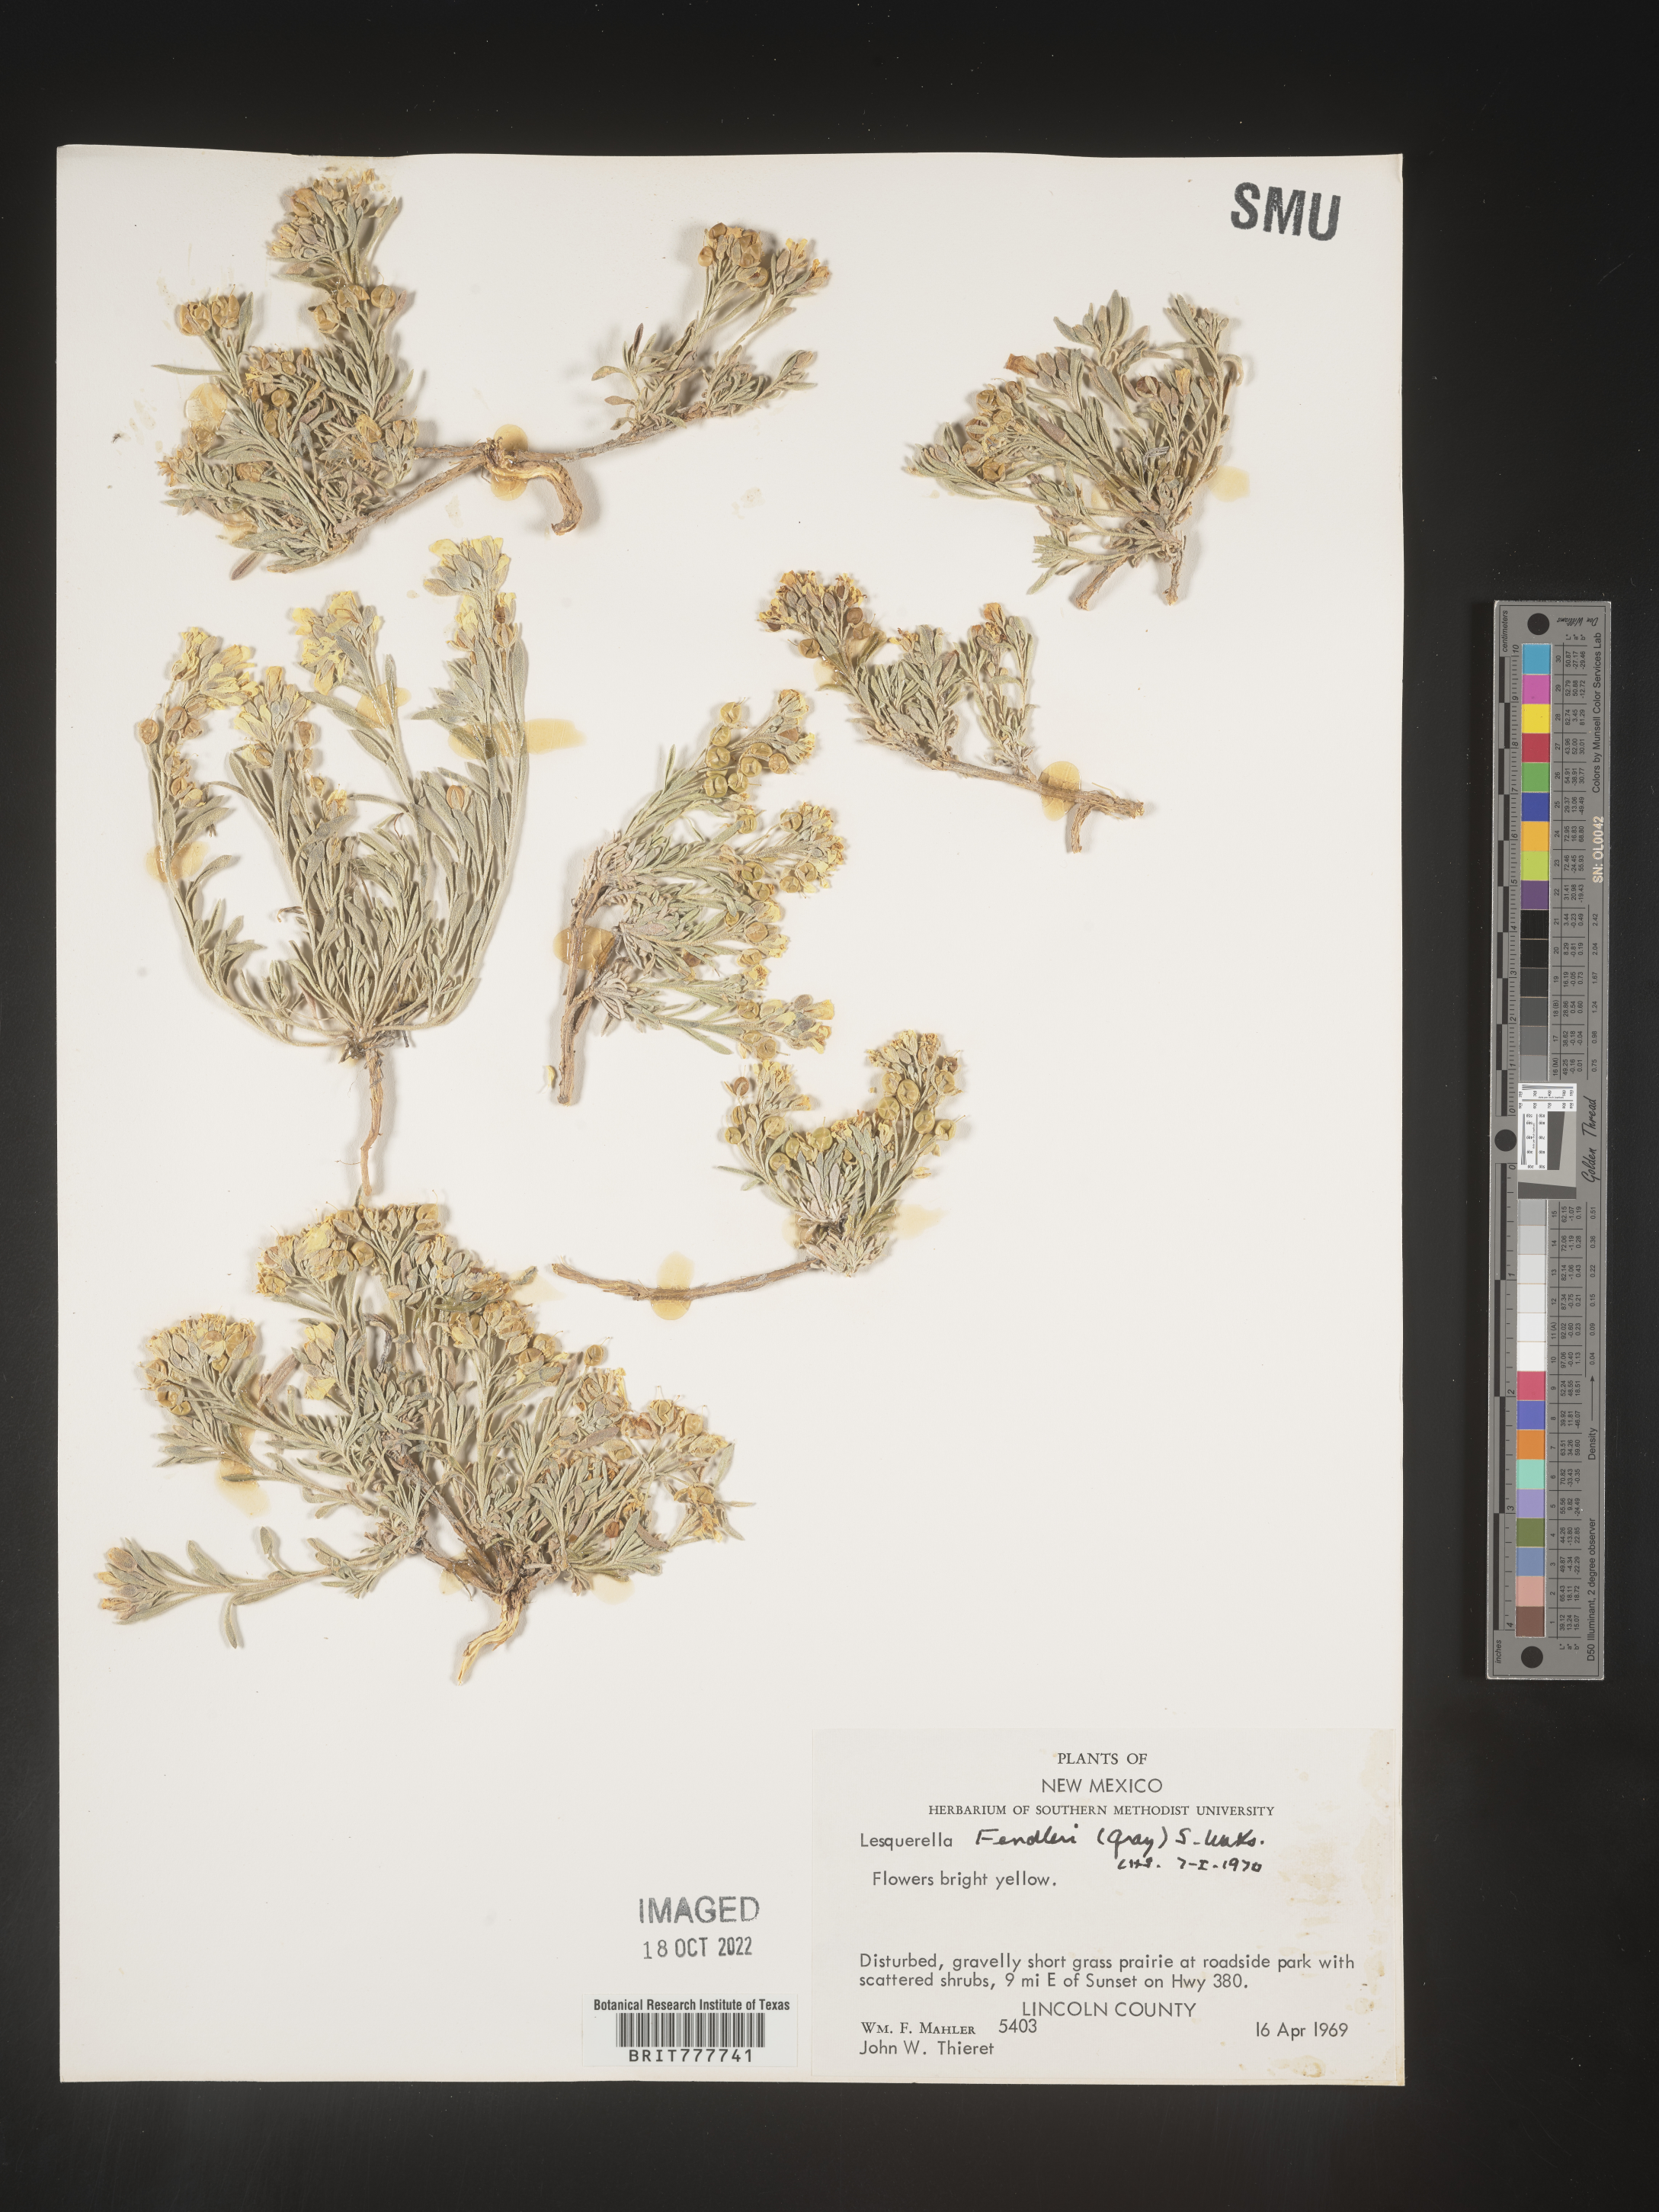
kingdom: Plantae
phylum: Tracheophyta
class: Magnoliopsida
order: Brassicales
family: Brassicaceae
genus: Physaria
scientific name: Physaria fendleri
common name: Fendler's bladderpod
